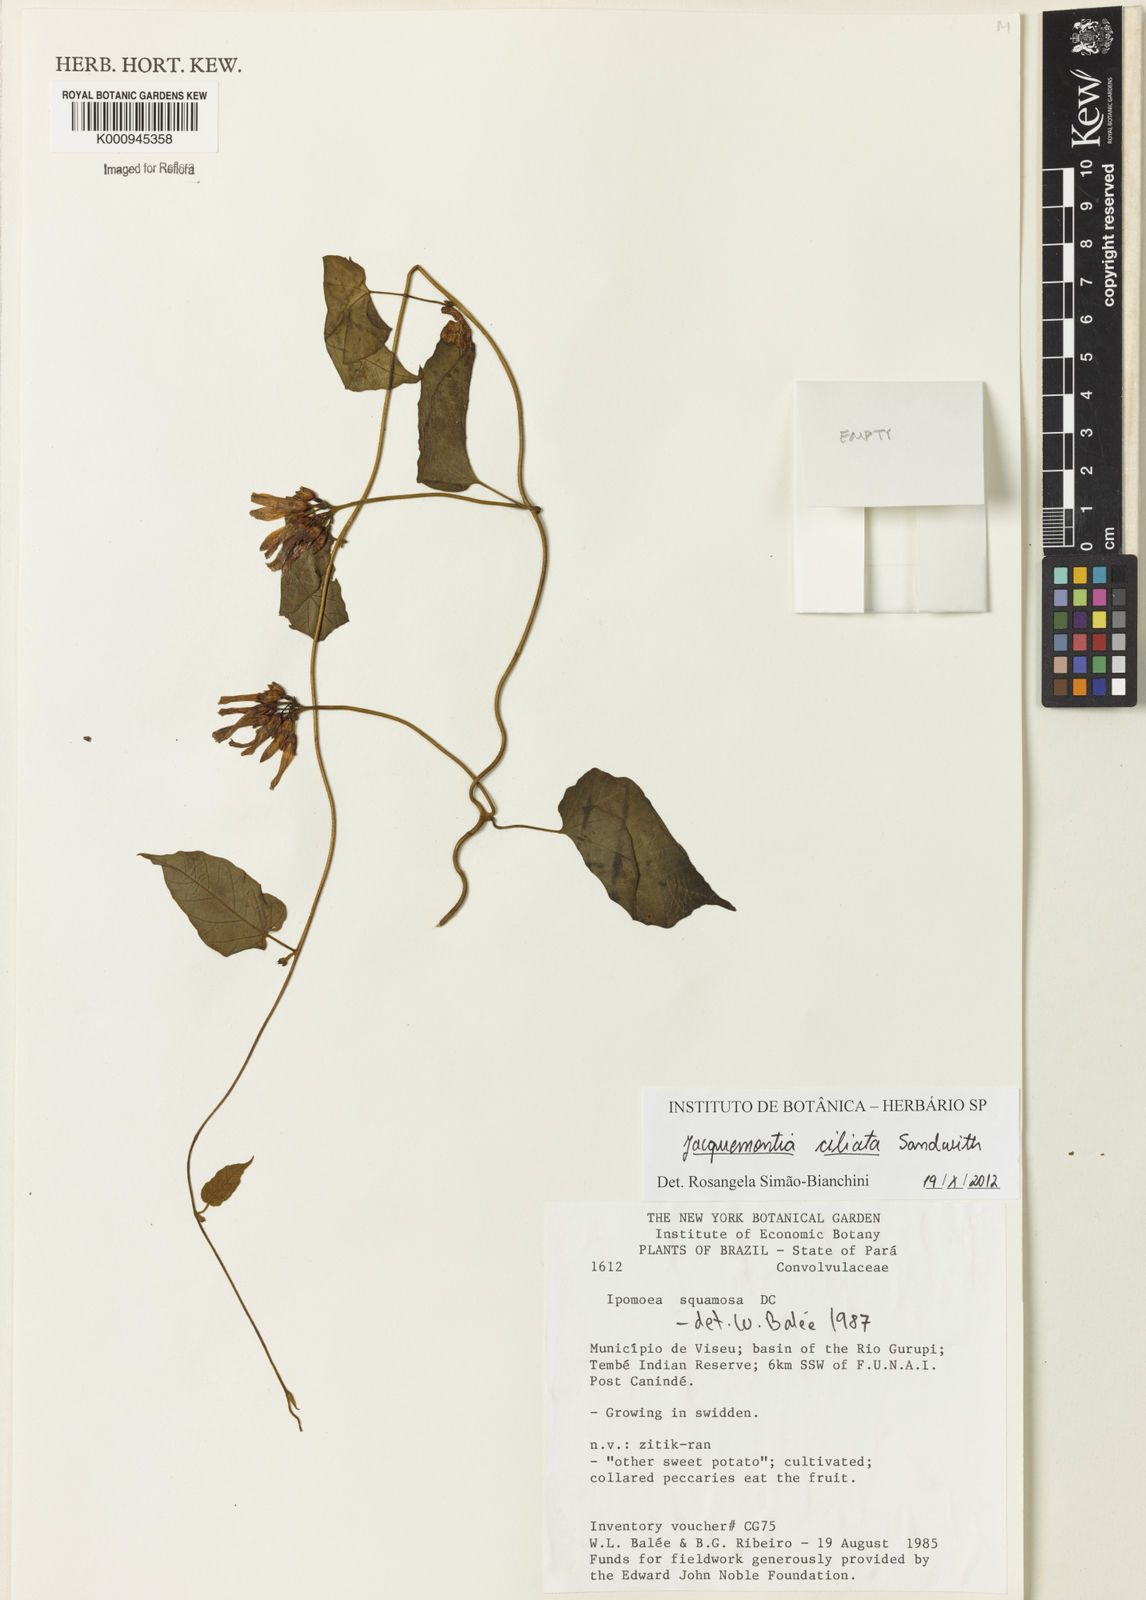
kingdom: Plantae
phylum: Tracheophyta
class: Magnoliopsida
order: Solanales
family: Convolvulaceae
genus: Jacquemontia
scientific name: Jacquemontia gabrielii
